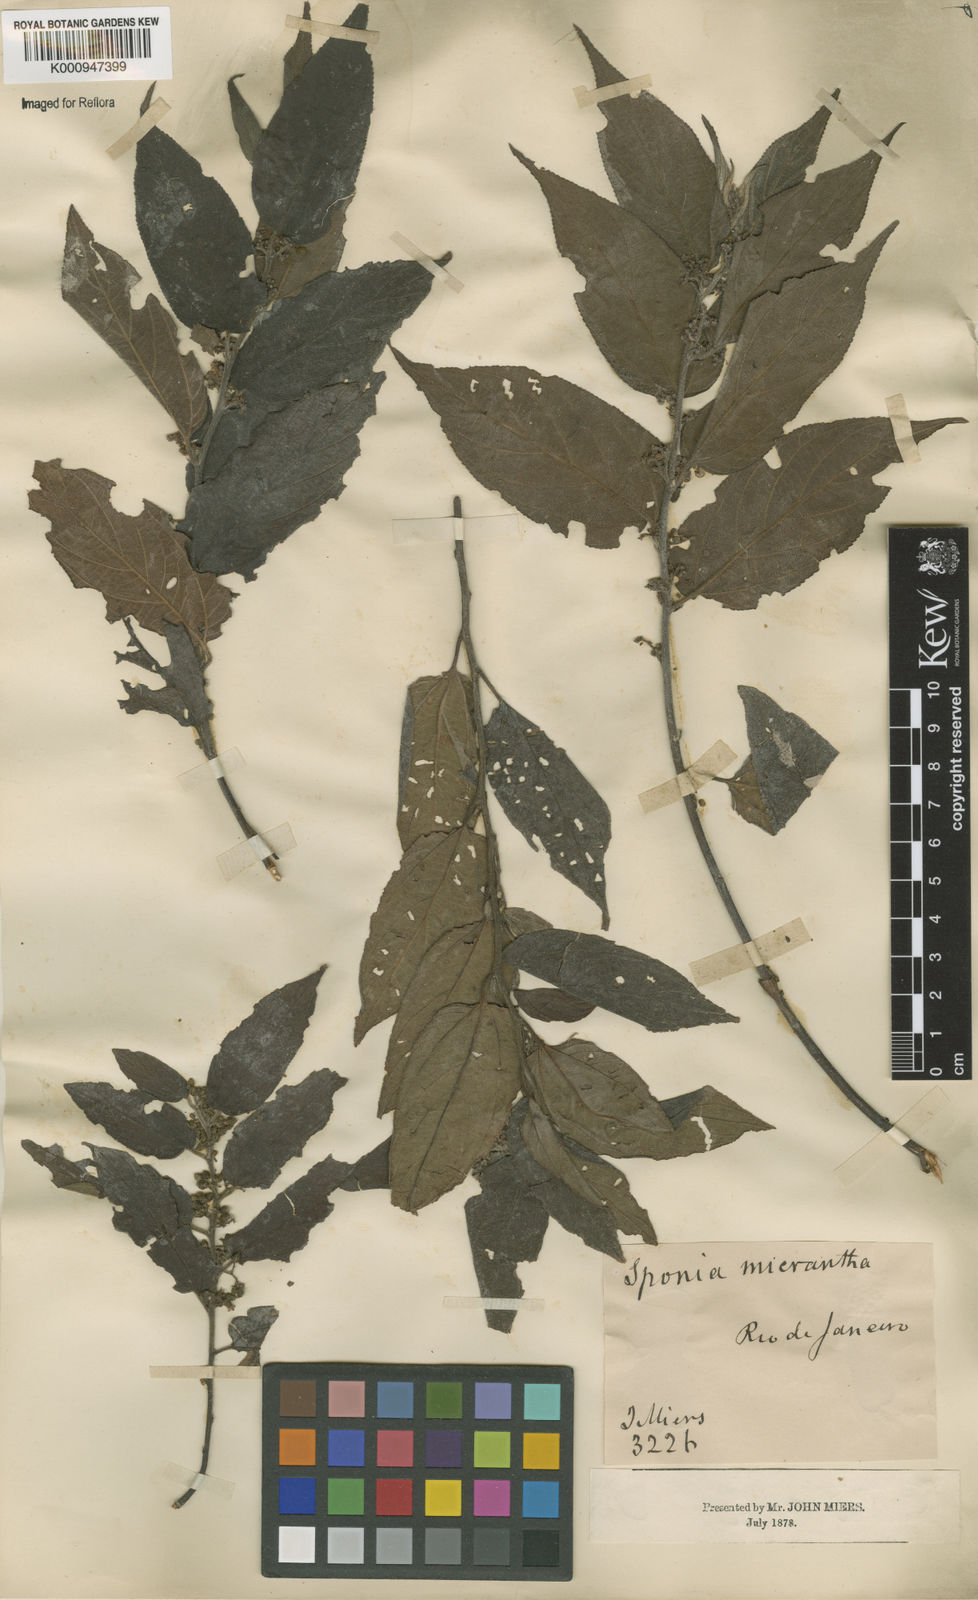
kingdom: Plantae
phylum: Tracheophyta
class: Magnoliopsida
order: Rosales
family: Cannabaceae
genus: Trema
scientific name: Trema micranthum
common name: Jamaican nettletree
